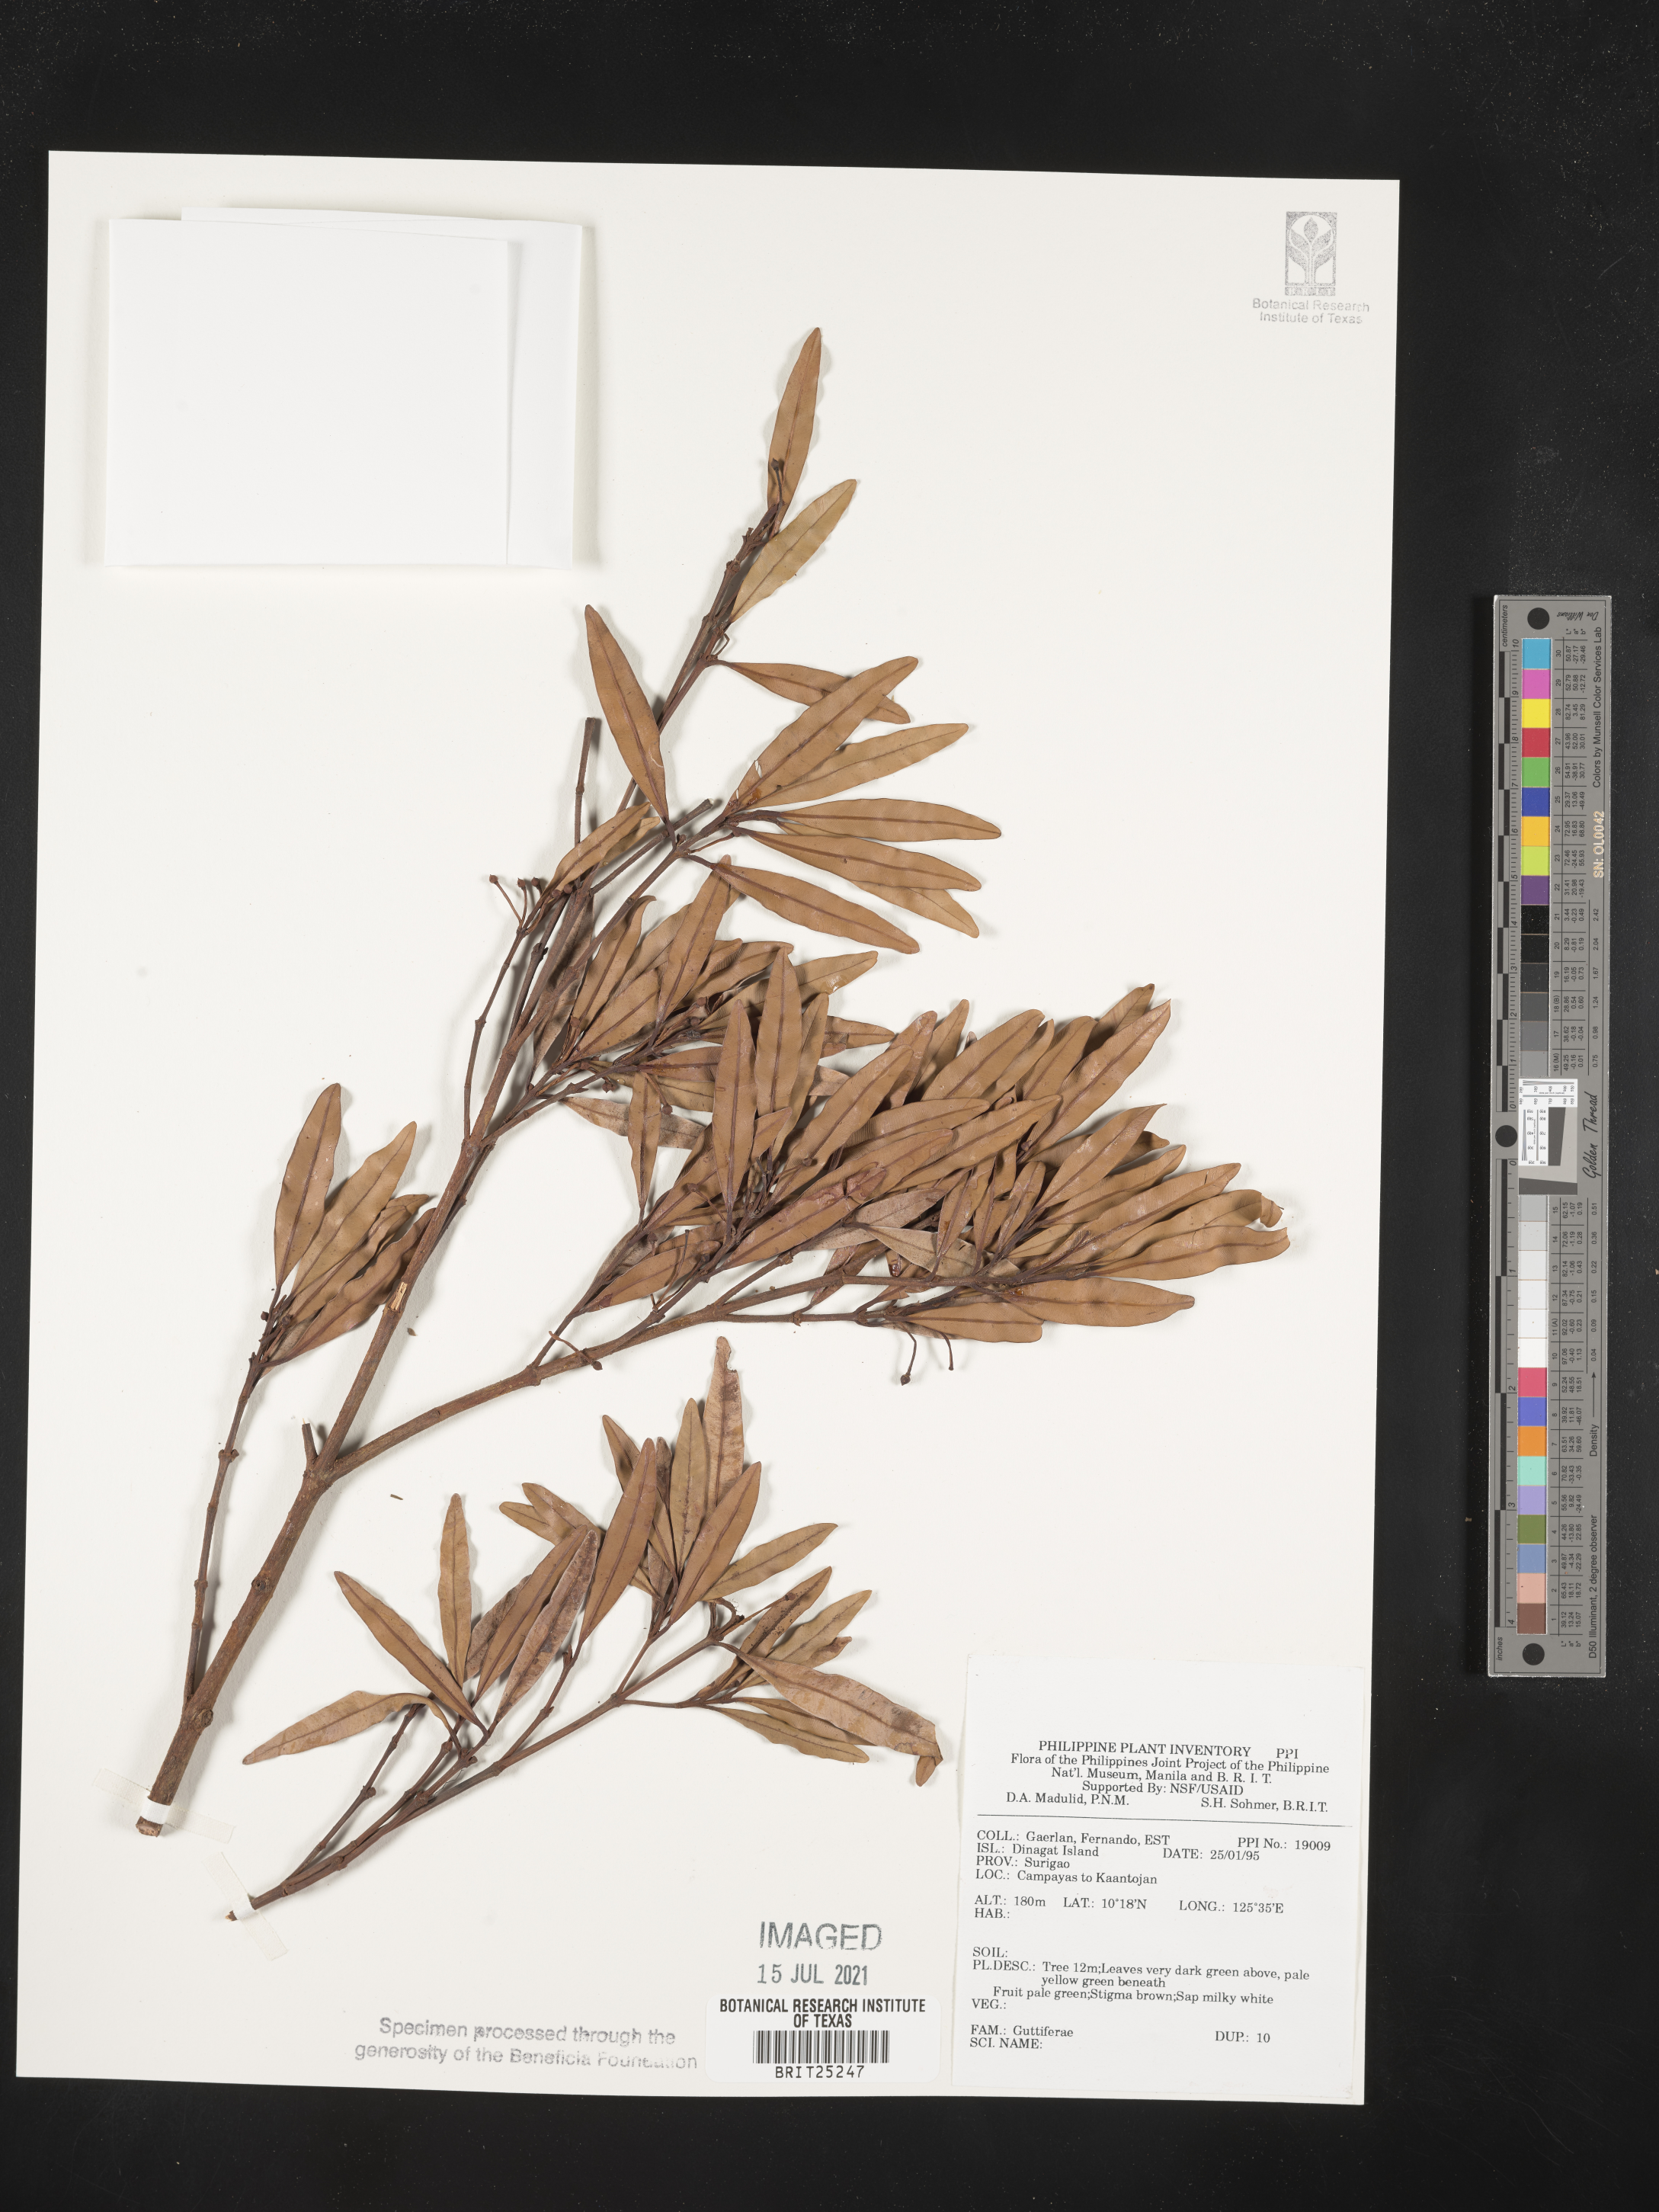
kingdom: Plantae
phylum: Tracheophyta
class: Magnoliopsida
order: Malpighiales
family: Hypericaceae
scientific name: Hypericaceae
